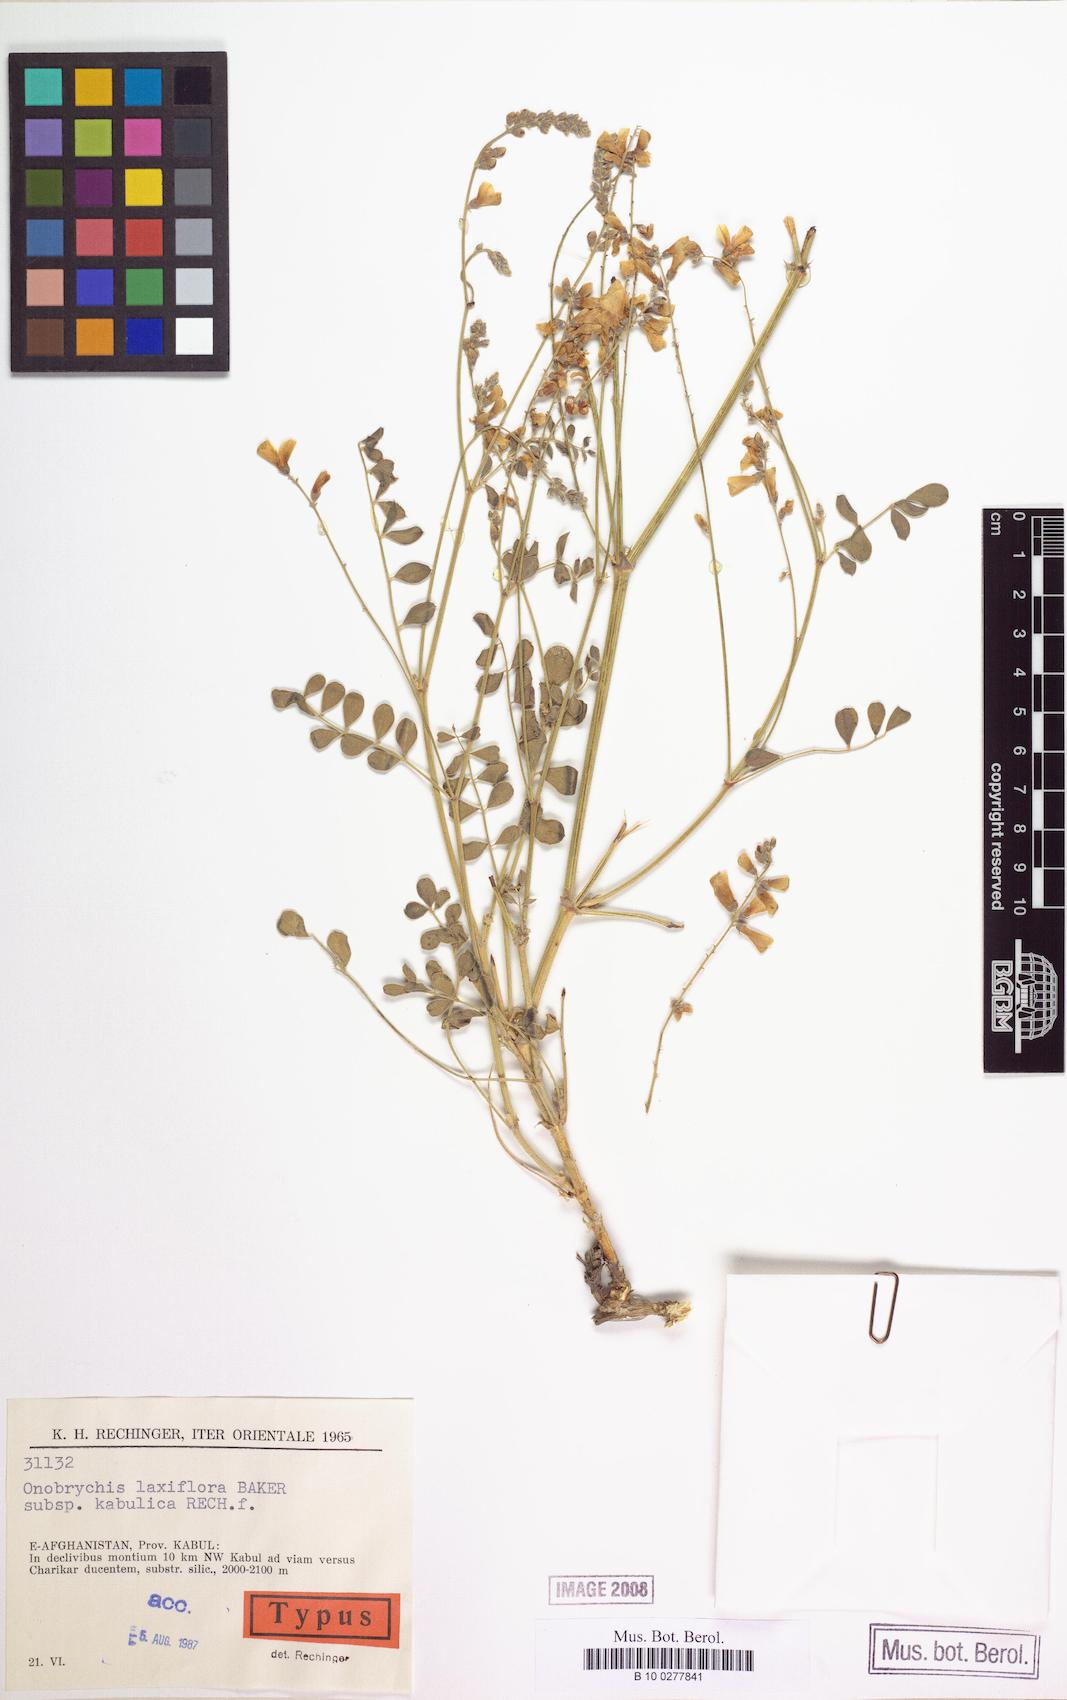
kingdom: Plantae
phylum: Tracheophyta
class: Magnoliopsida
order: Fabales
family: Fabaceae
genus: Onobrychis
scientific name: Onobrychis laxiflora
